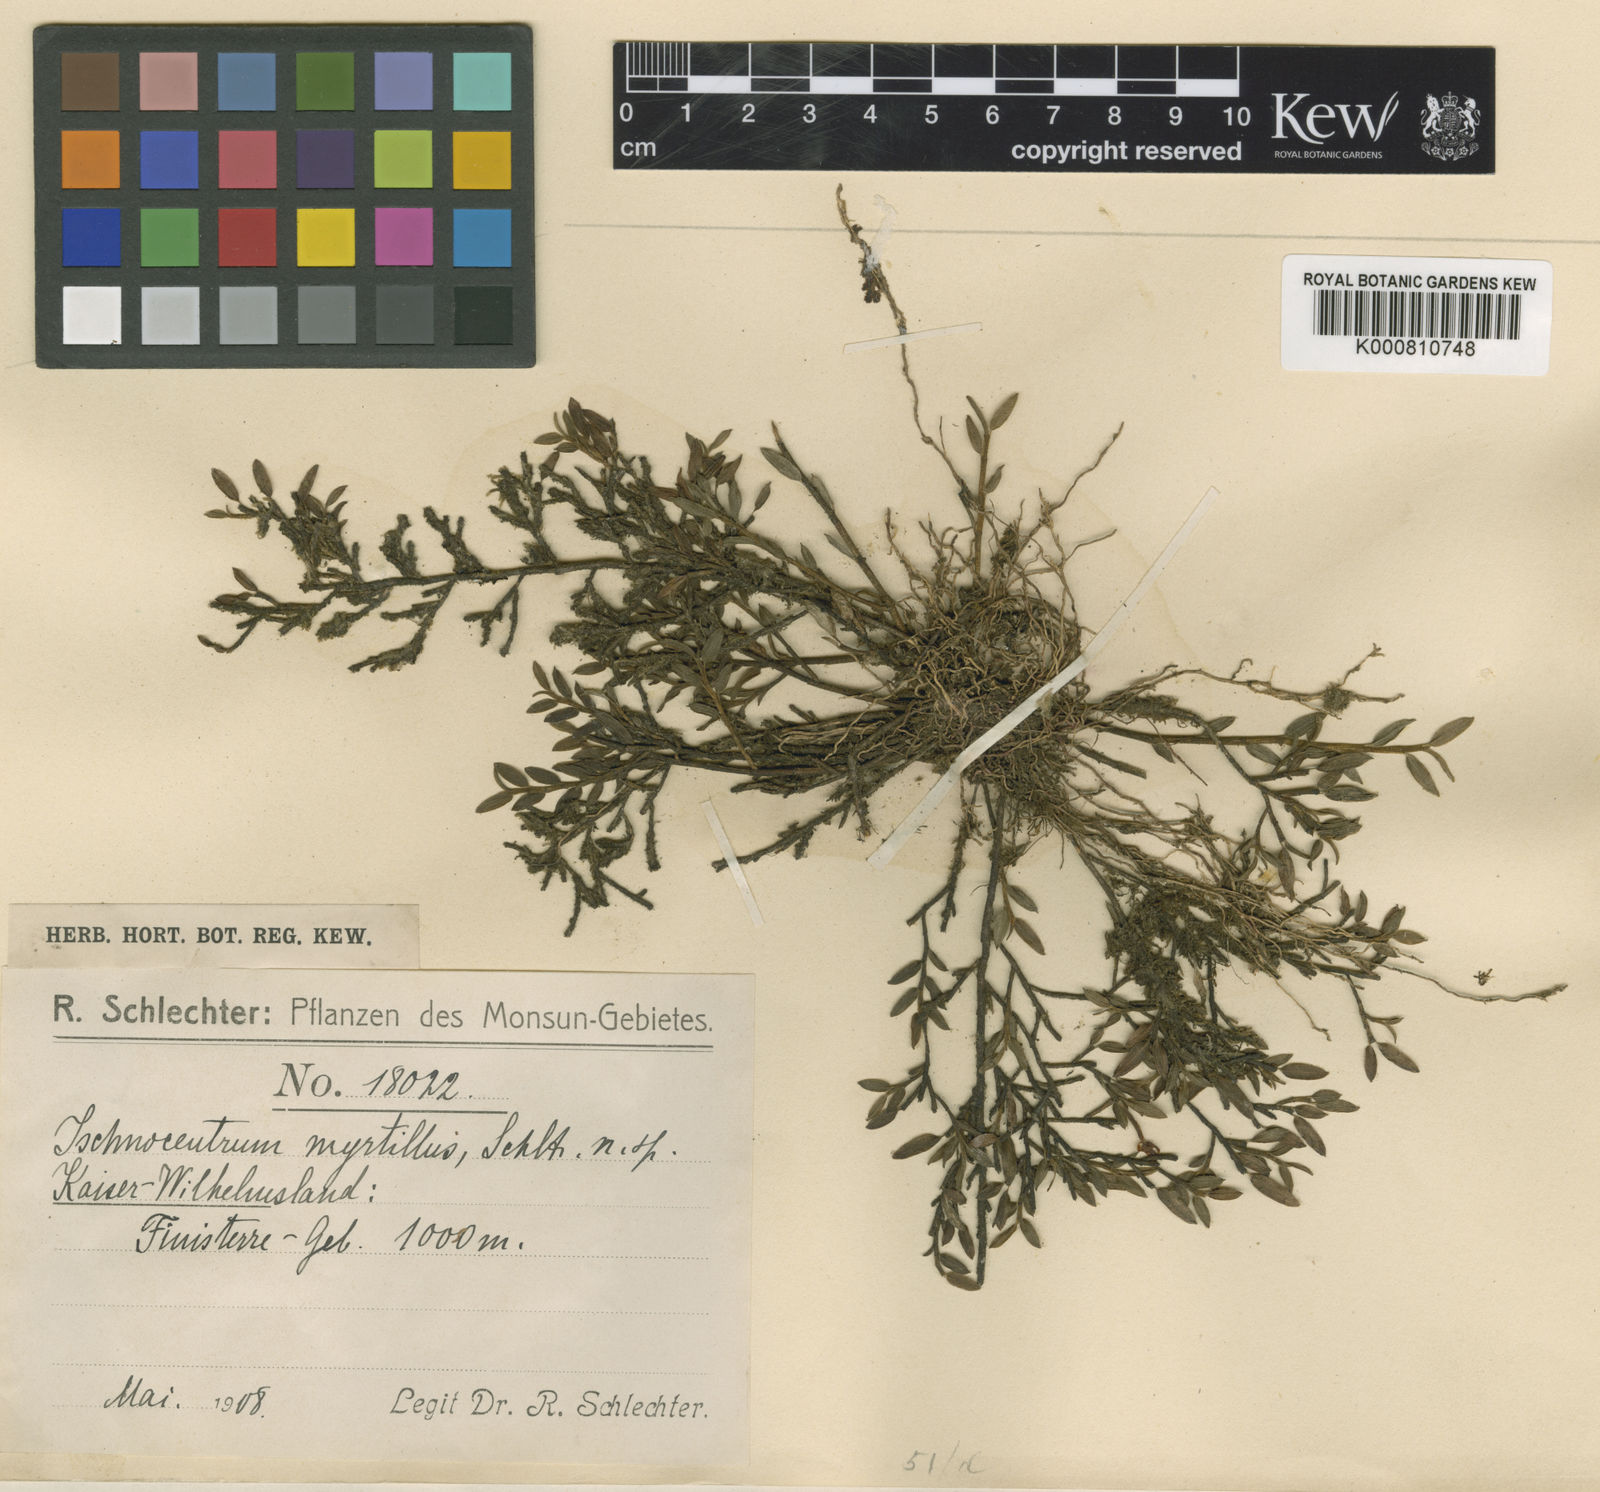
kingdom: Plantae
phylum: Tracheophyta
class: Liliopsida
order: Asparagales
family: Orchidaceae
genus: Glomera
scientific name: Glomera myrtillus
